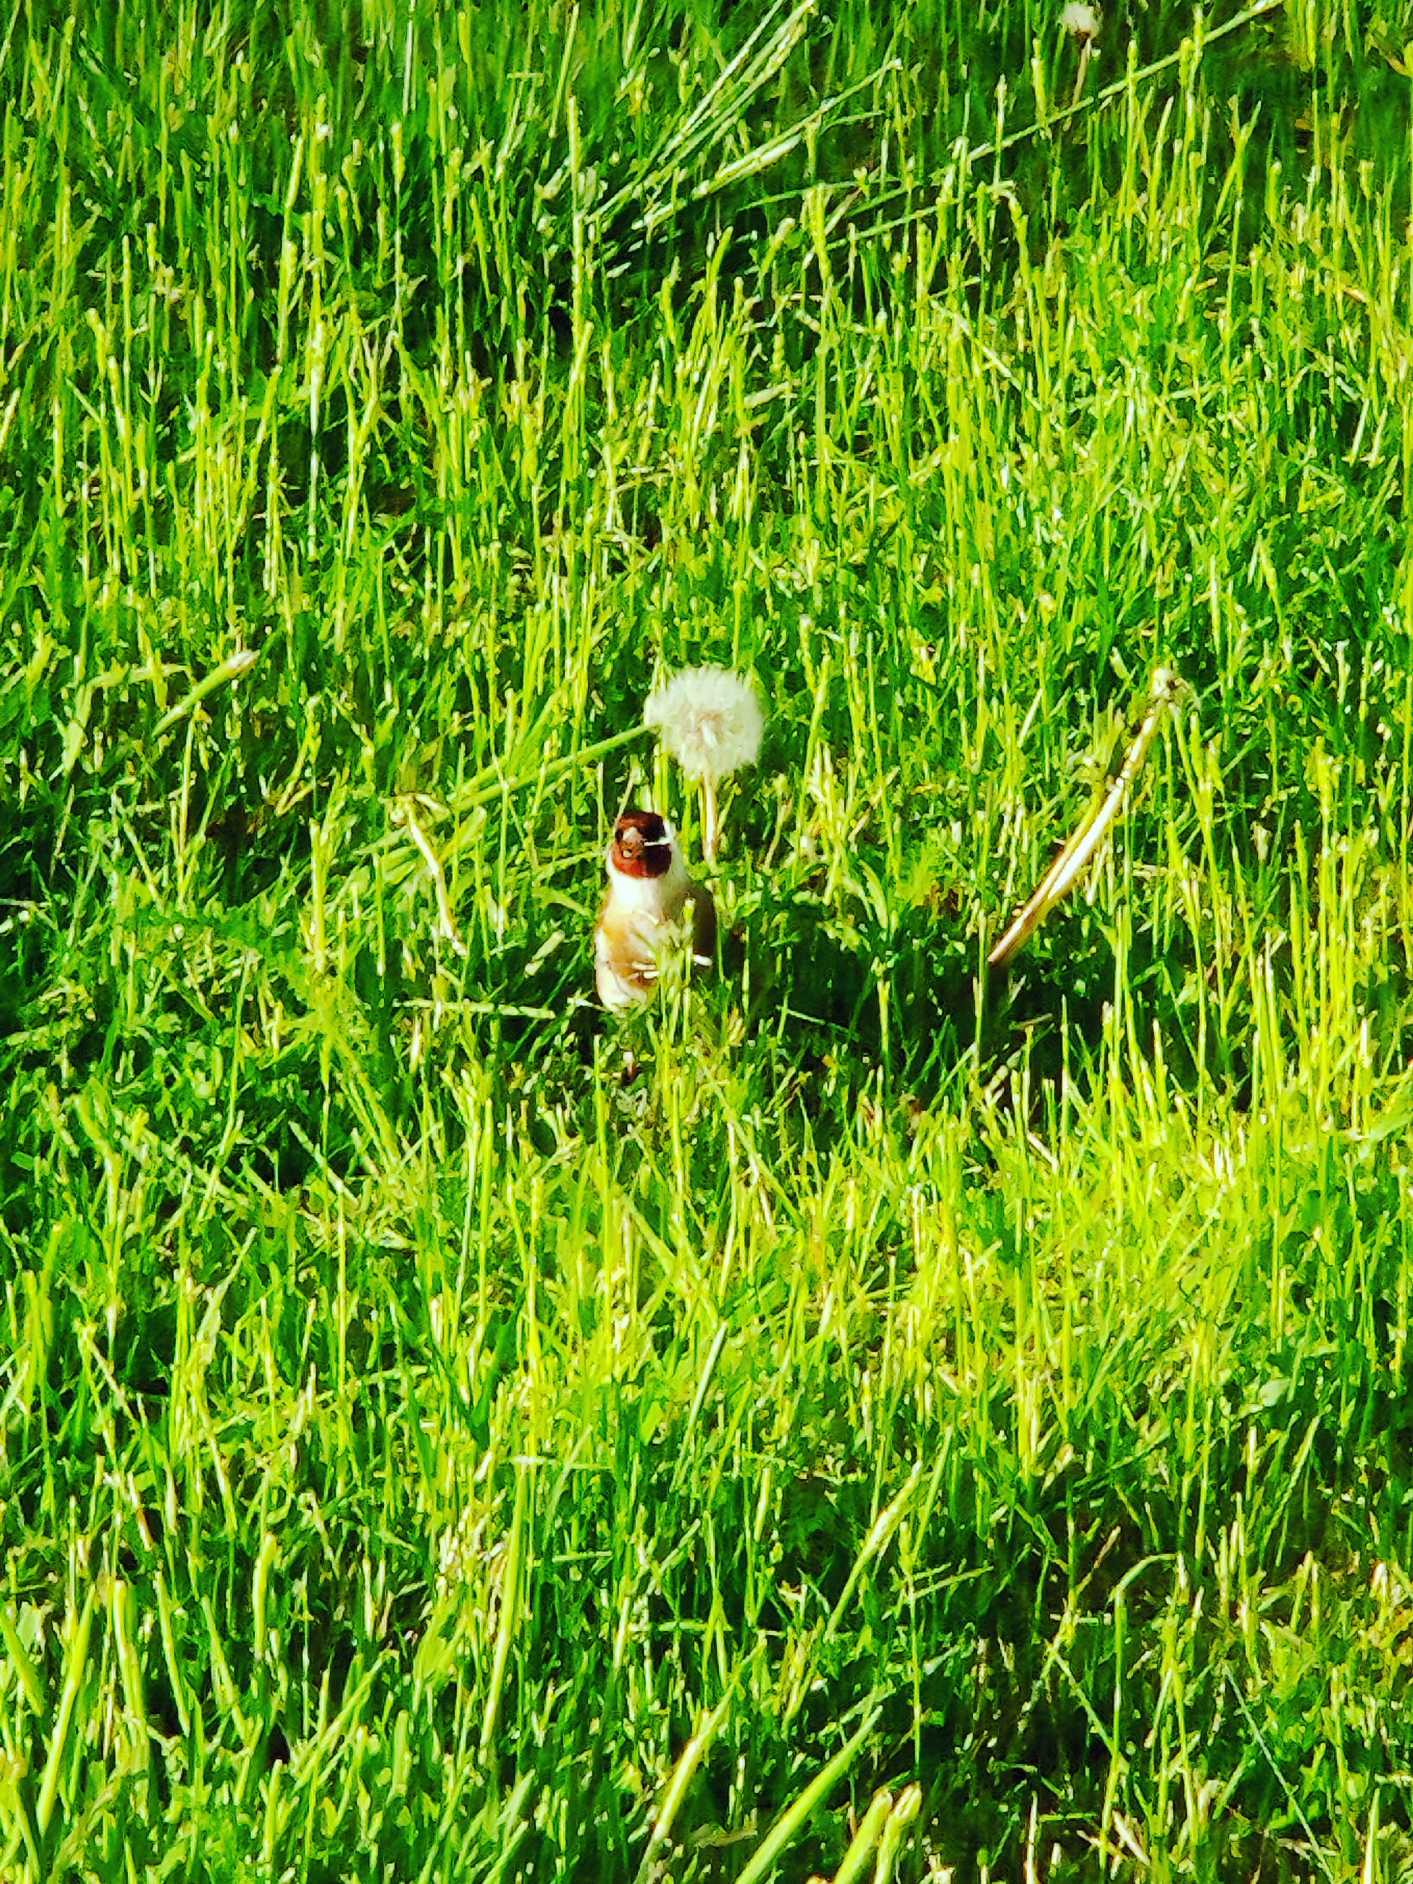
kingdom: Animalia
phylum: Chordata
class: Aves
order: Passeriformes
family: Fringillidae
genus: Carduelis
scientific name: Carduelis carduelis
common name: Stillits
